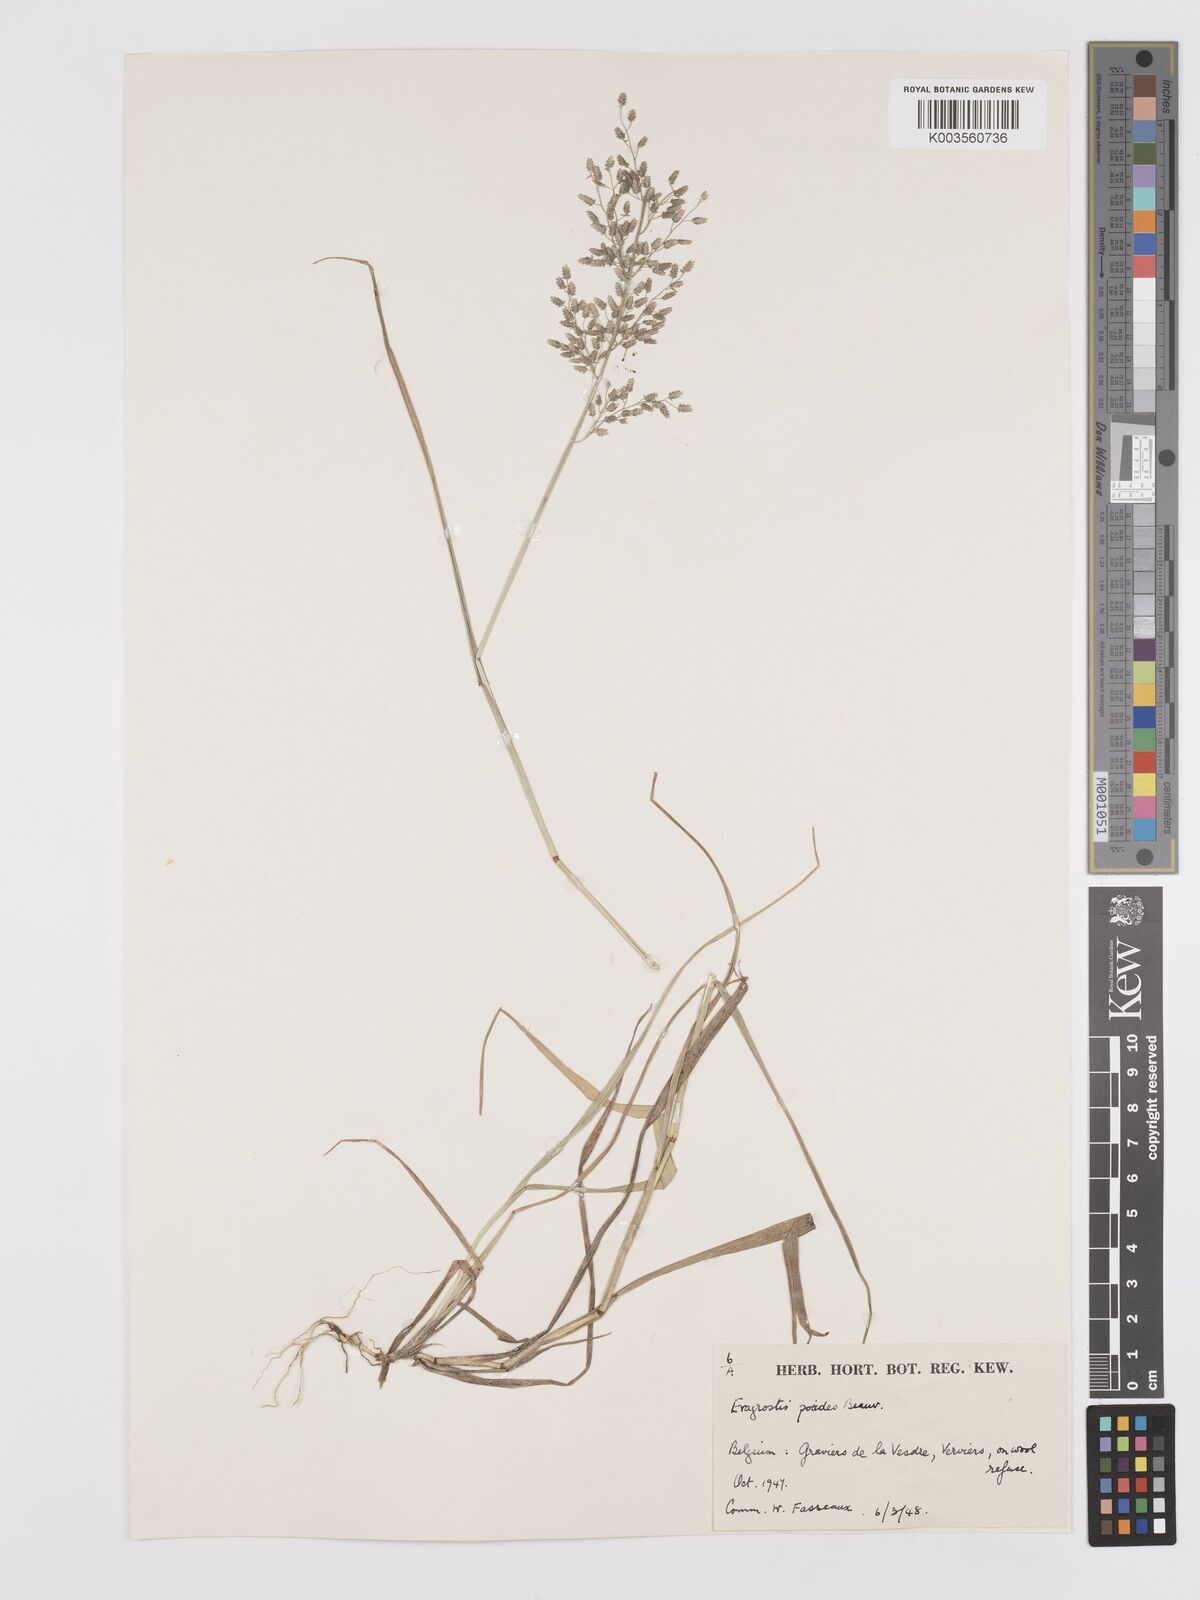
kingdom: Plantae
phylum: Tracheophyta
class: Liliopsida
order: Poales
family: Poaceae
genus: Eragrostis
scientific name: Eragrostis minor
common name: Small love-grass
